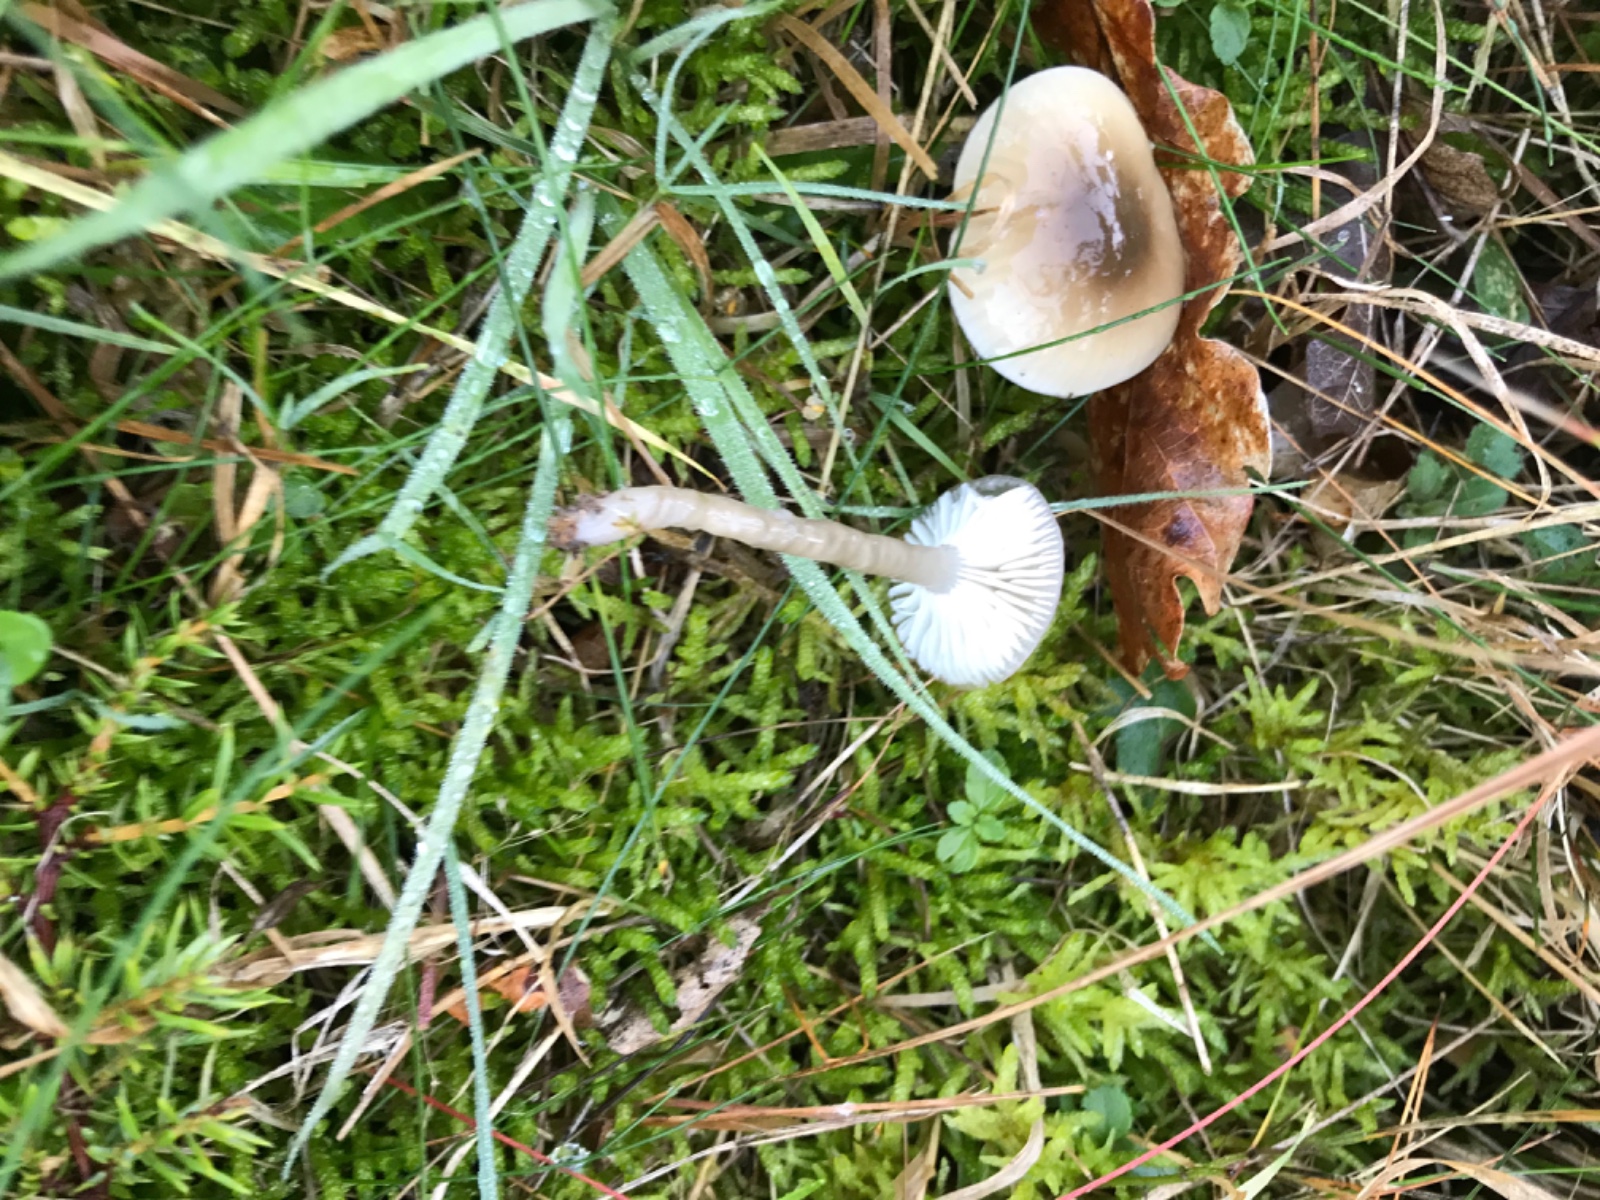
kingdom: Fungi
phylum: Basidiomycota
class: Agaricomycetes
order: Agaricales
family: Hygrophoraceae
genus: Gliophorus
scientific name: Gliophorus irrigatus
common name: slimet vokshat
